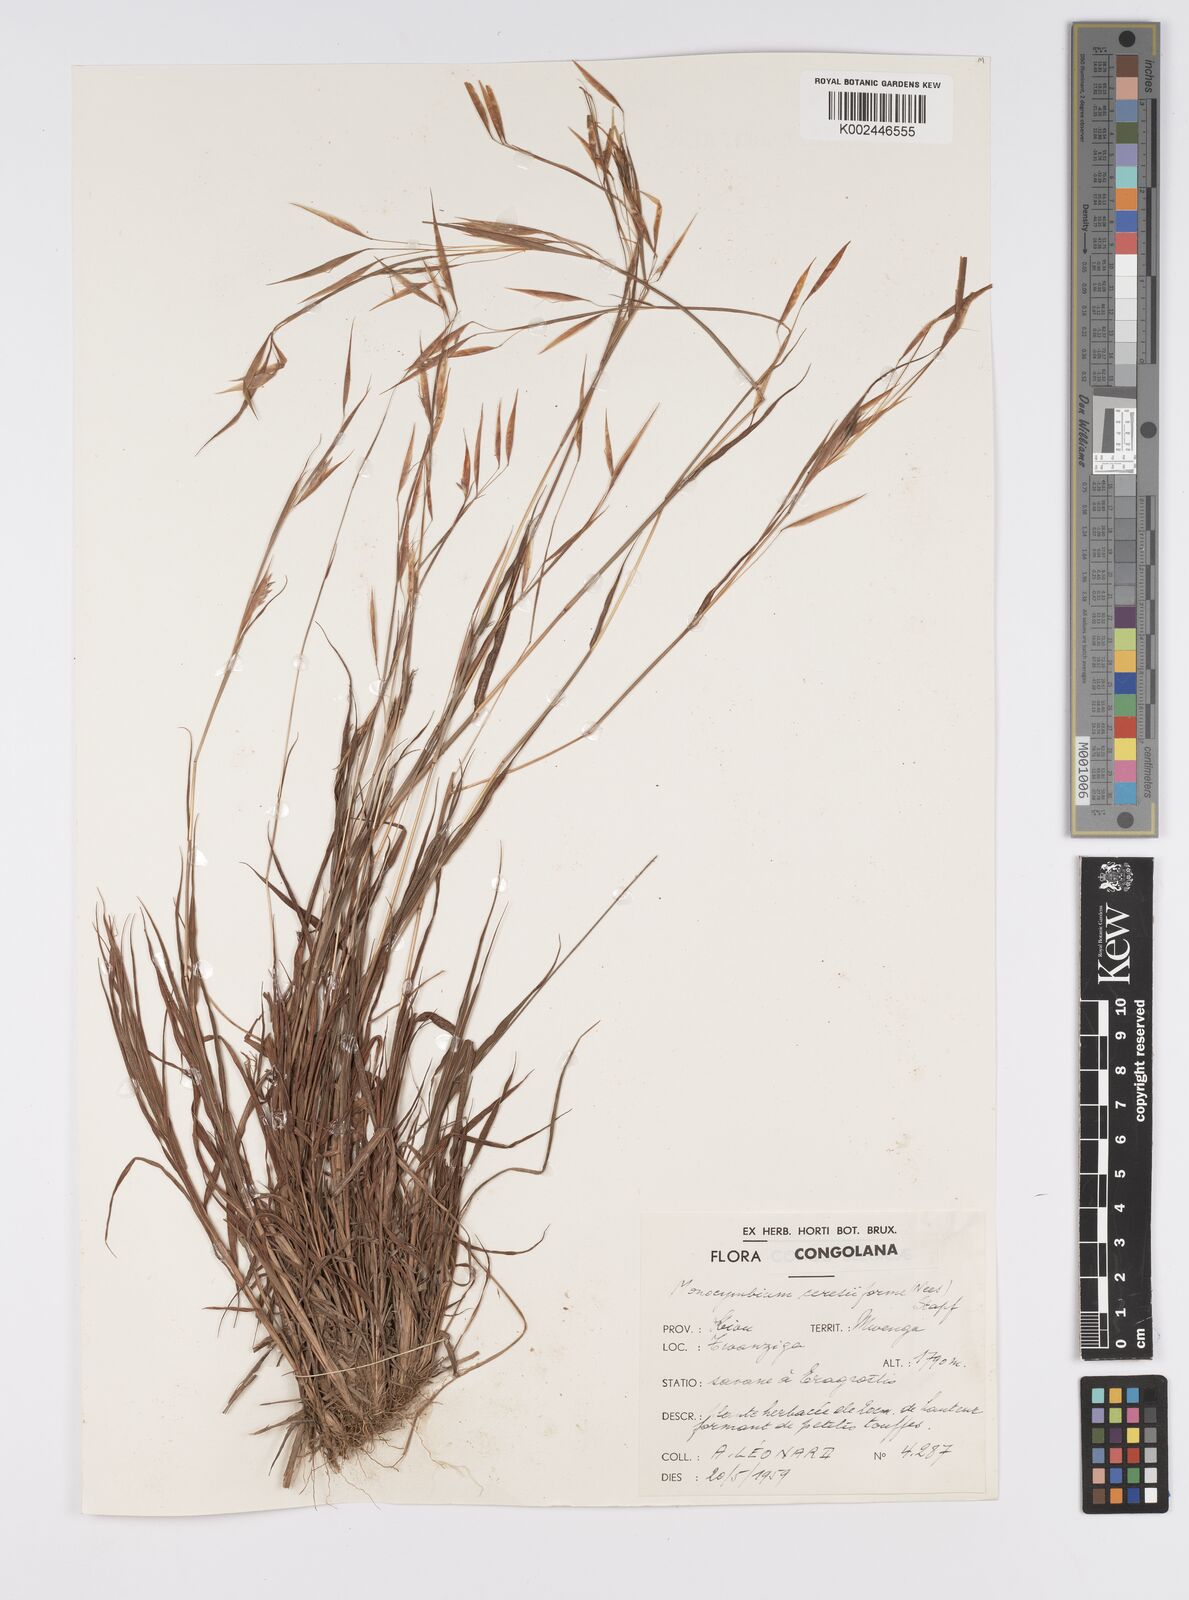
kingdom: Plantae
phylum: Tracheophyta
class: Liliopsida
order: Poales
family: Poaceae
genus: Monocymbium
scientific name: Monocymbium ceresiiforme
